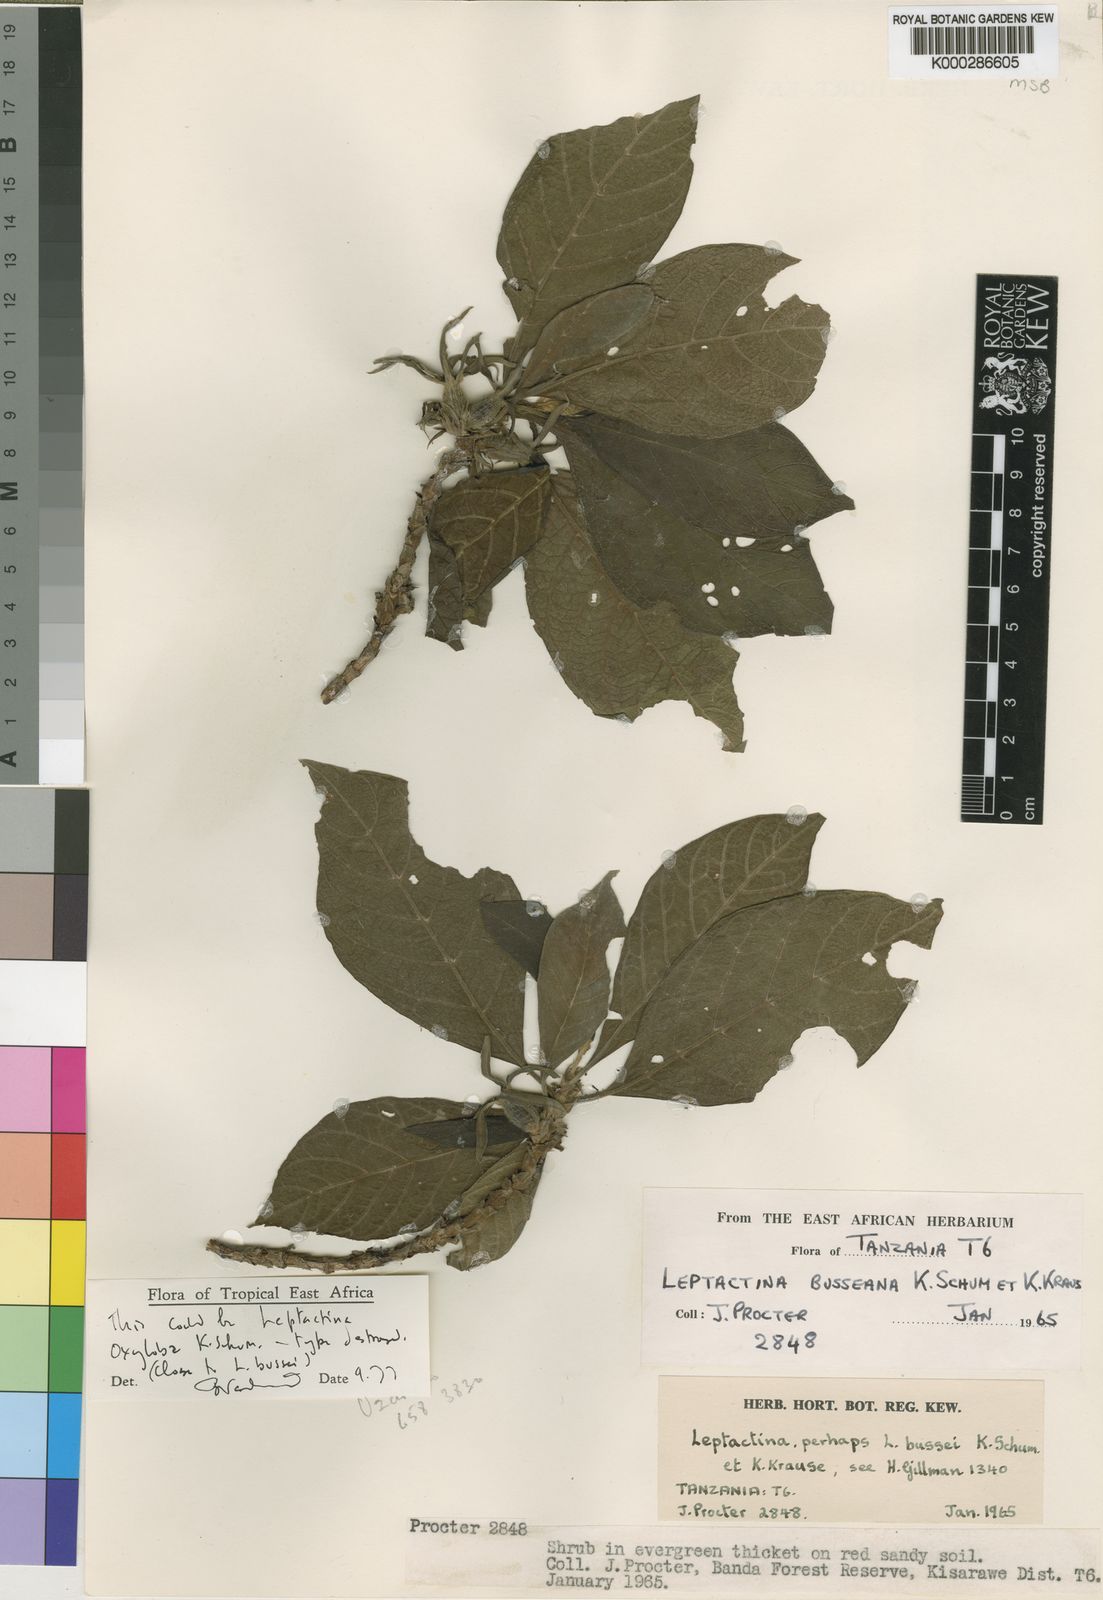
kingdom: Plantae
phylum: Tracheophyta
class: Magnoliopsida
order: Gentianales
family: Rubiaceae
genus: Leptactina
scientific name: Leptactina oxyloba
